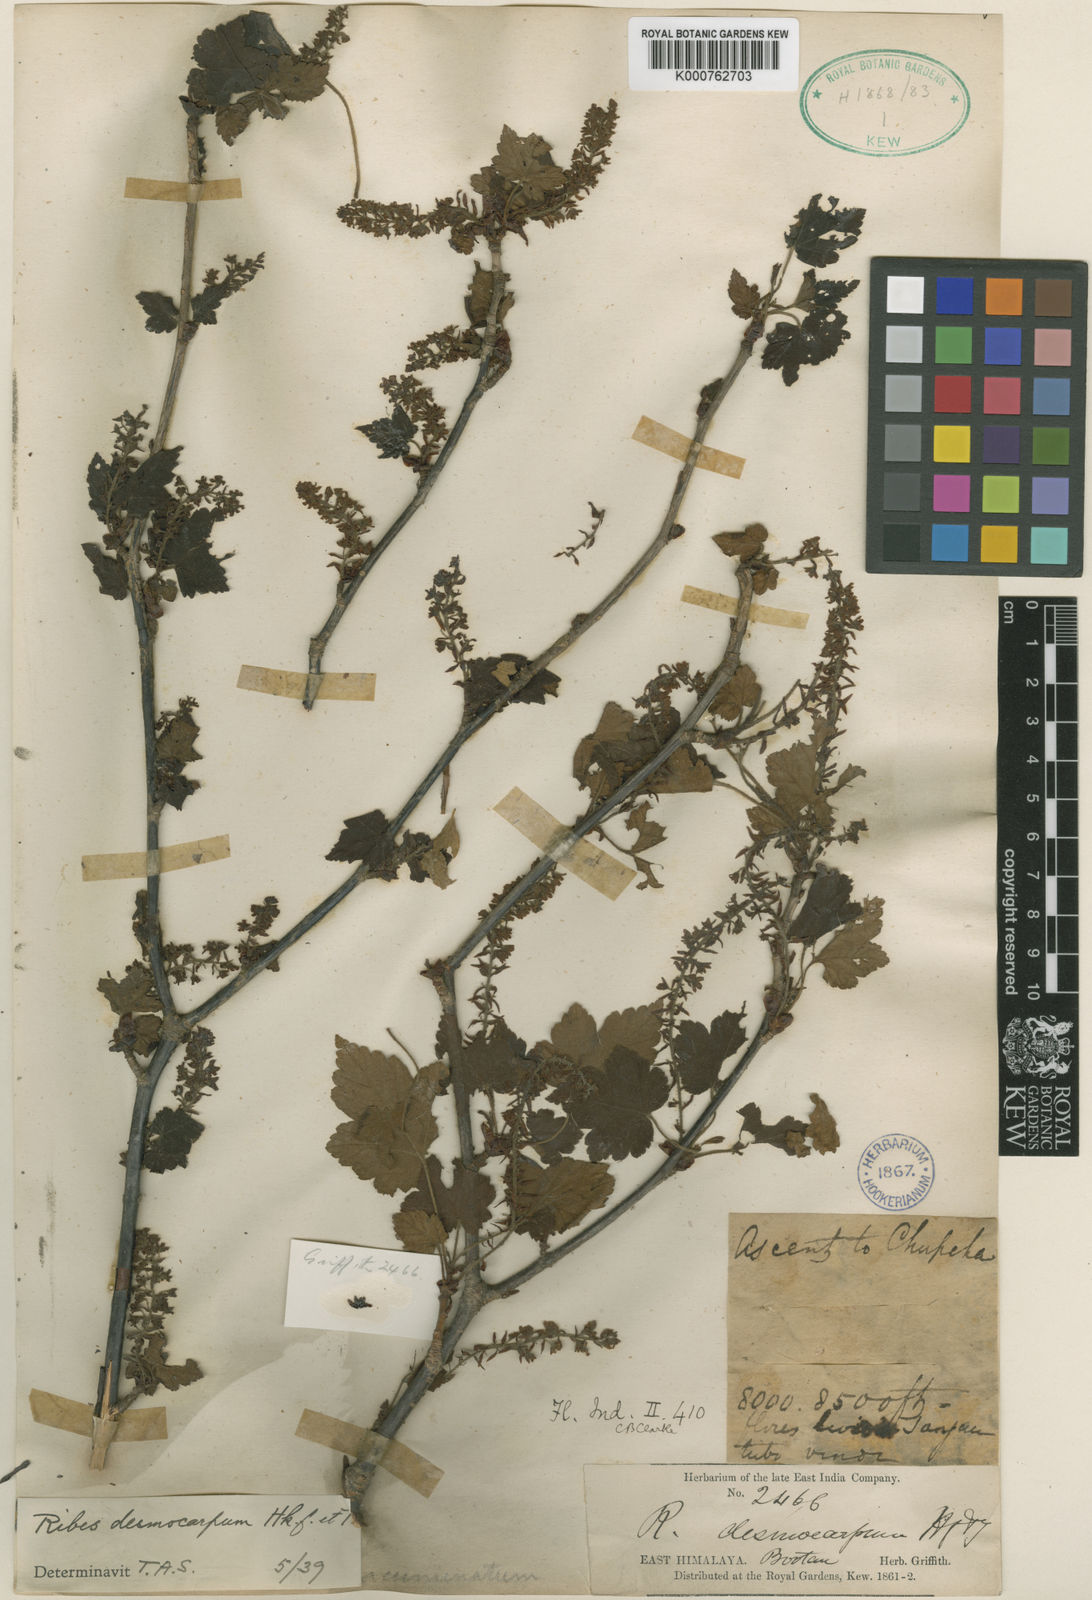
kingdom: Plantae
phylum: Tracheophyta
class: Magnoliopsida
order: Saxifragales
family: Grossulariaceae
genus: Ribes
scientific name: Ribes takare
